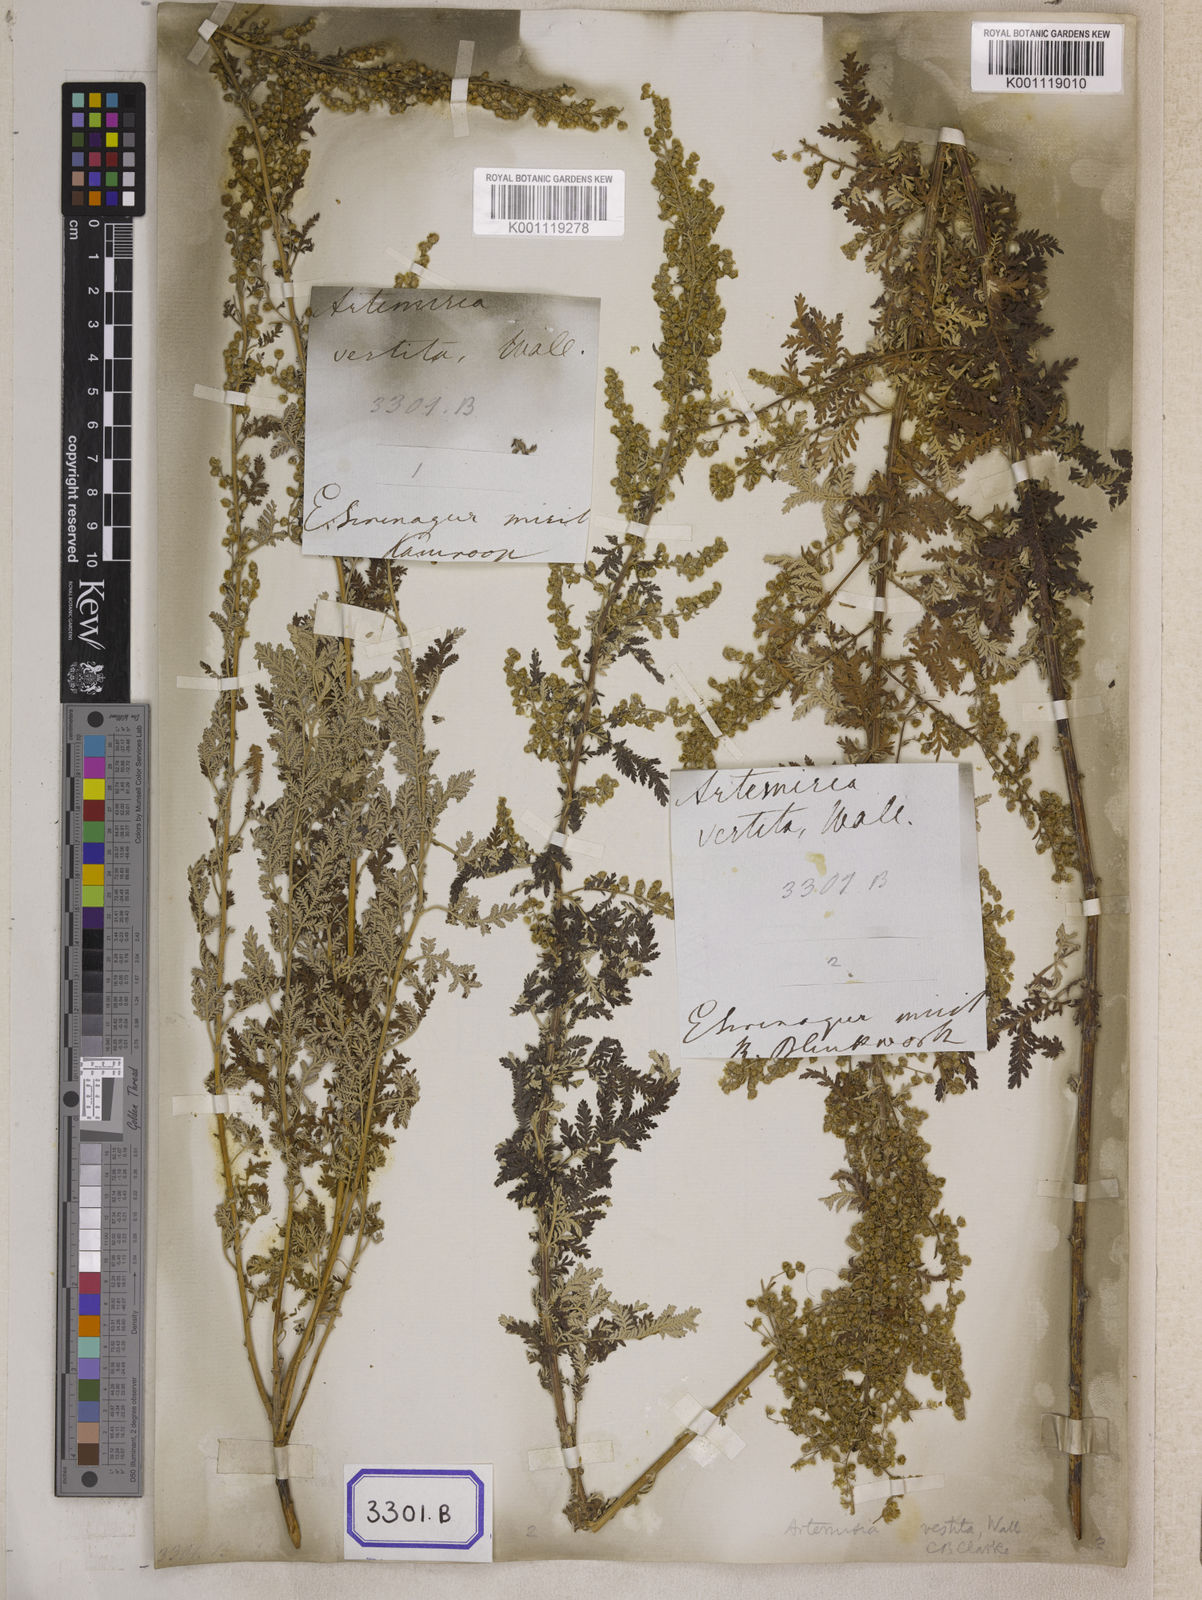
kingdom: Plantae
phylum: Tracheophyta
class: Magnoliopsida
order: Asterales
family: Asteraceae
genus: Artemisia
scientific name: Artemisia vestita
